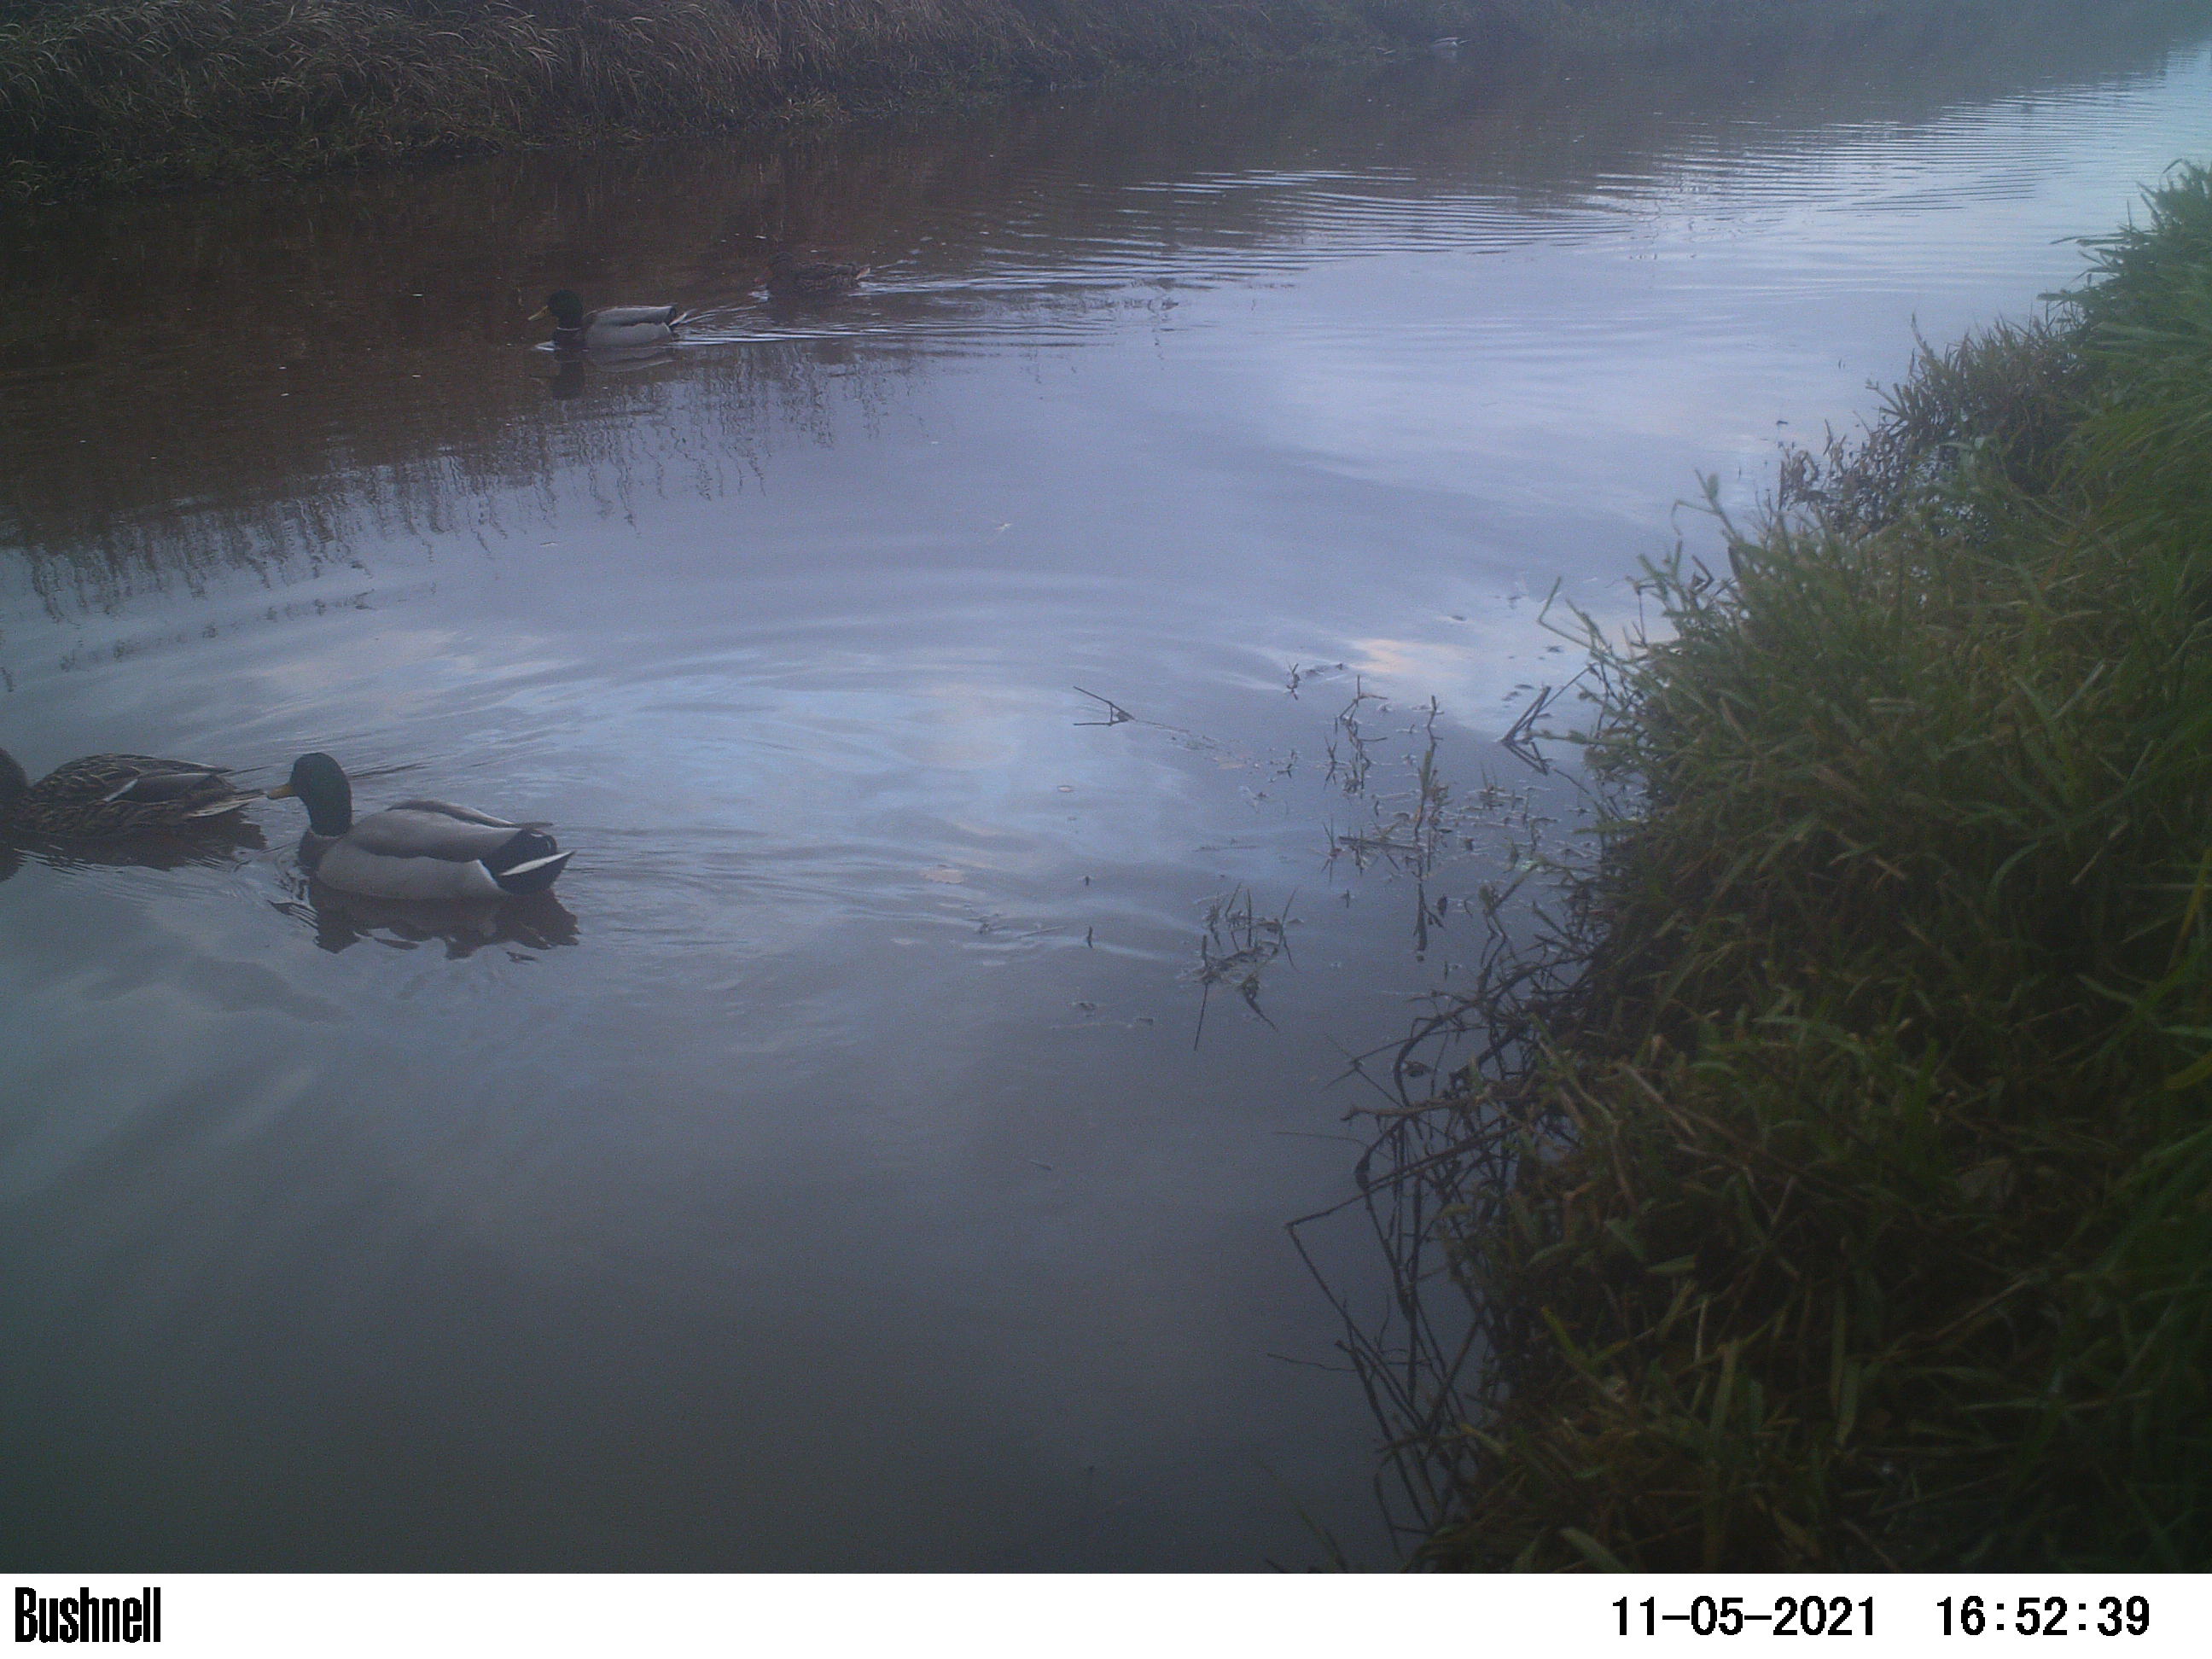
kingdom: Animalia
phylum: Chordata
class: Aves
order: Anseriformes
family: Anatidae
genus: Anas
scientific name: Anas
